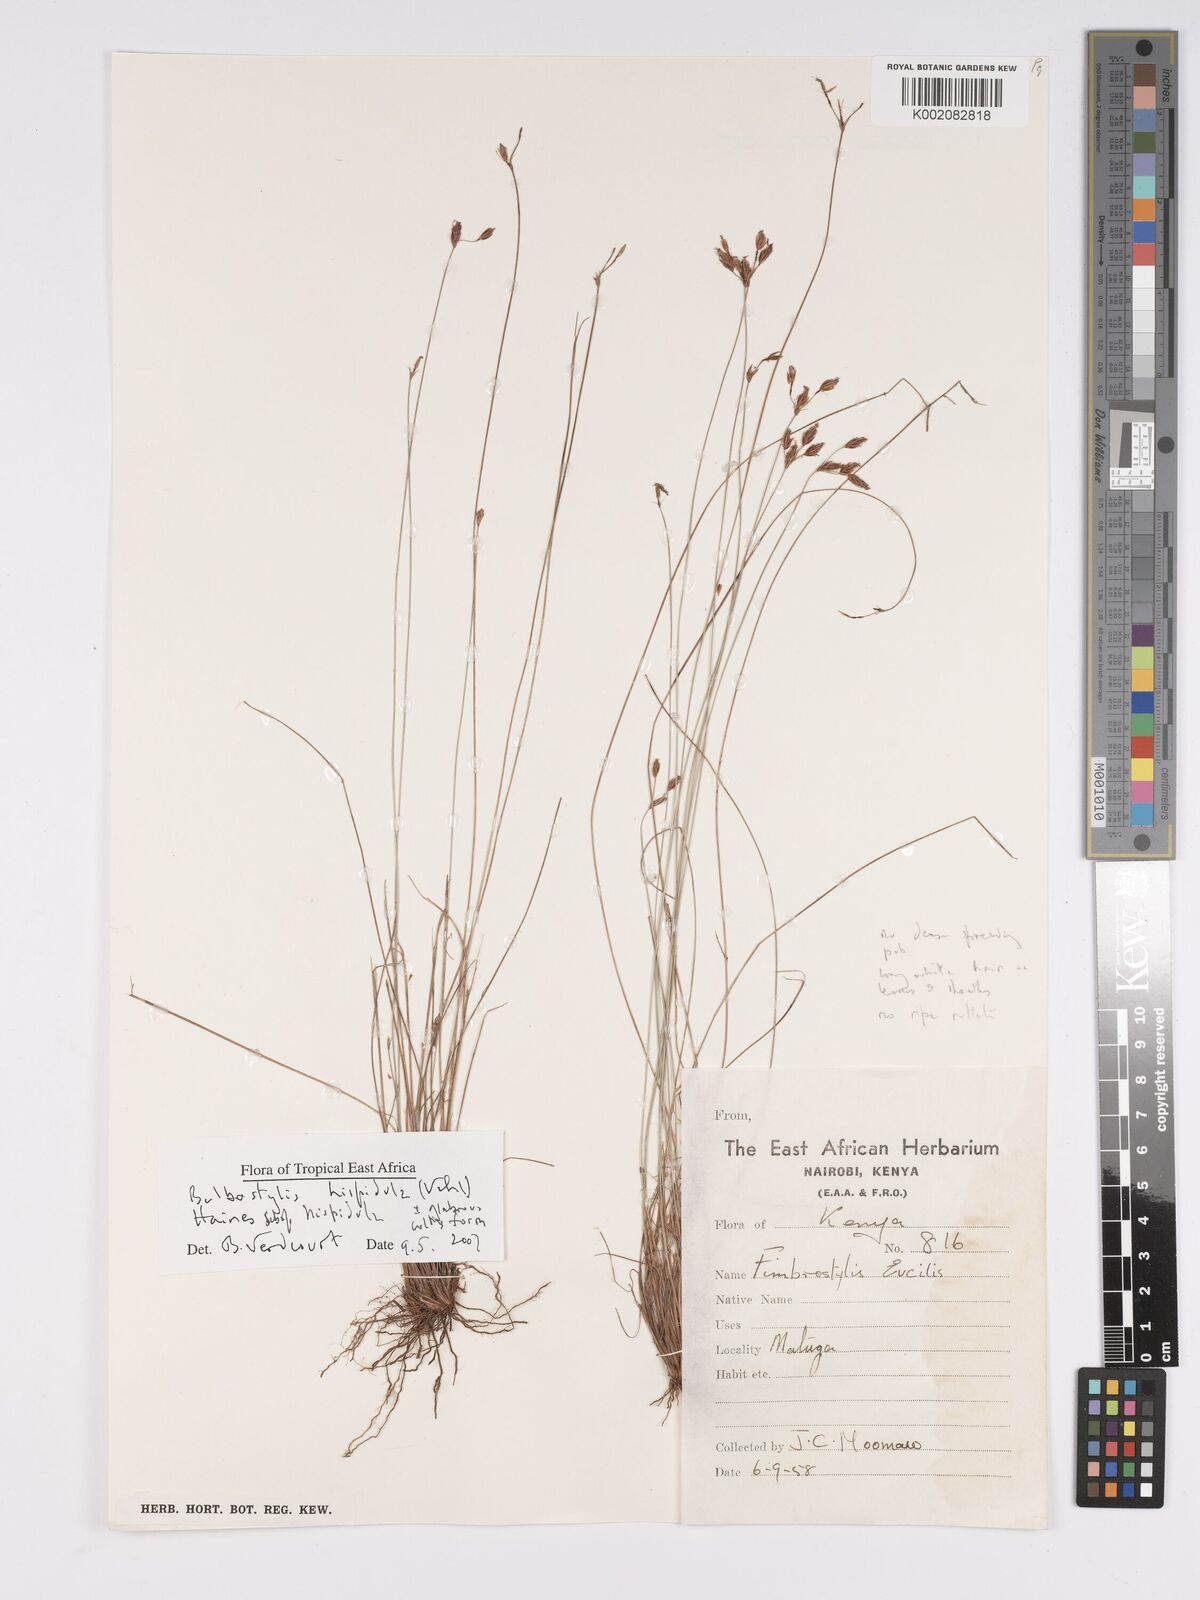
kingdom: Plantae
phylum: Tracheophyta
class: Liliopsida
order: Poales
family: Cyperaceae
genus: Bulbostylis
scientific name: Bulbostylis hispidula
